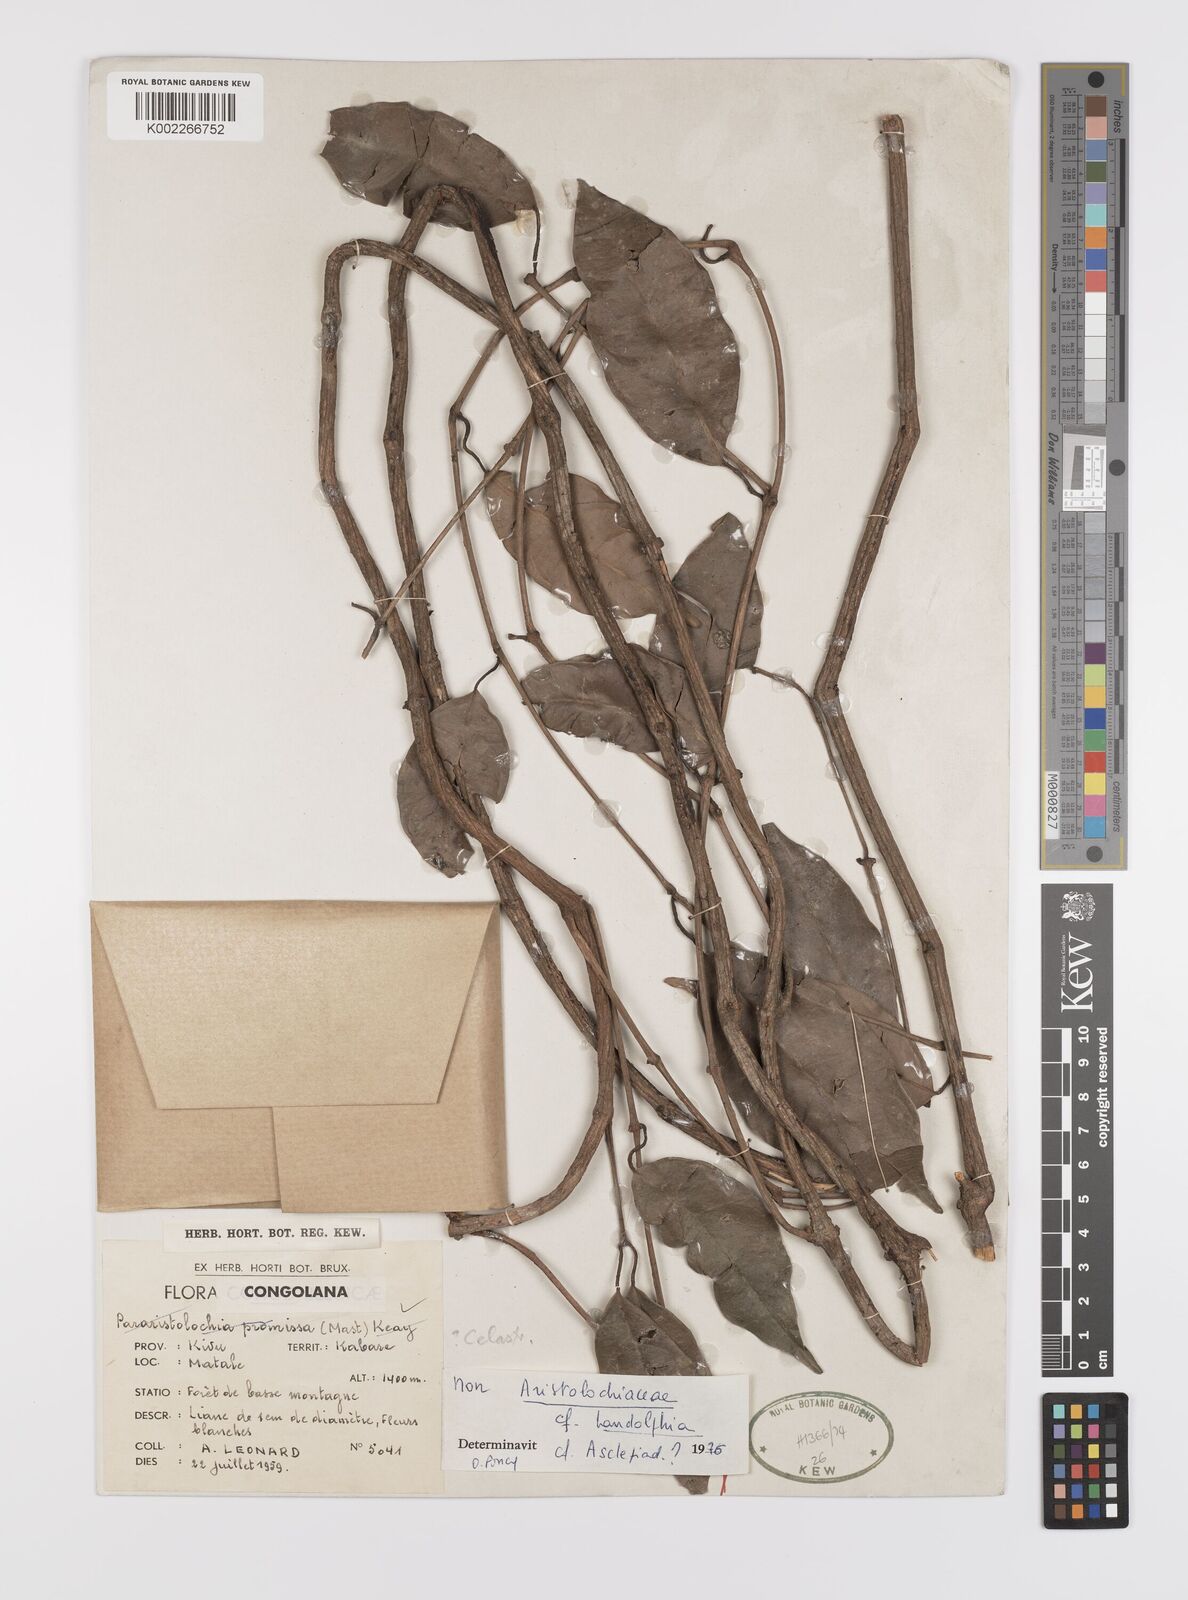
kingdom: Plantae
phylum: Tracheophyta
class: Magnoliopsida
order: Celastrales
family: Celastraceae
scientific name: Celastraceae
